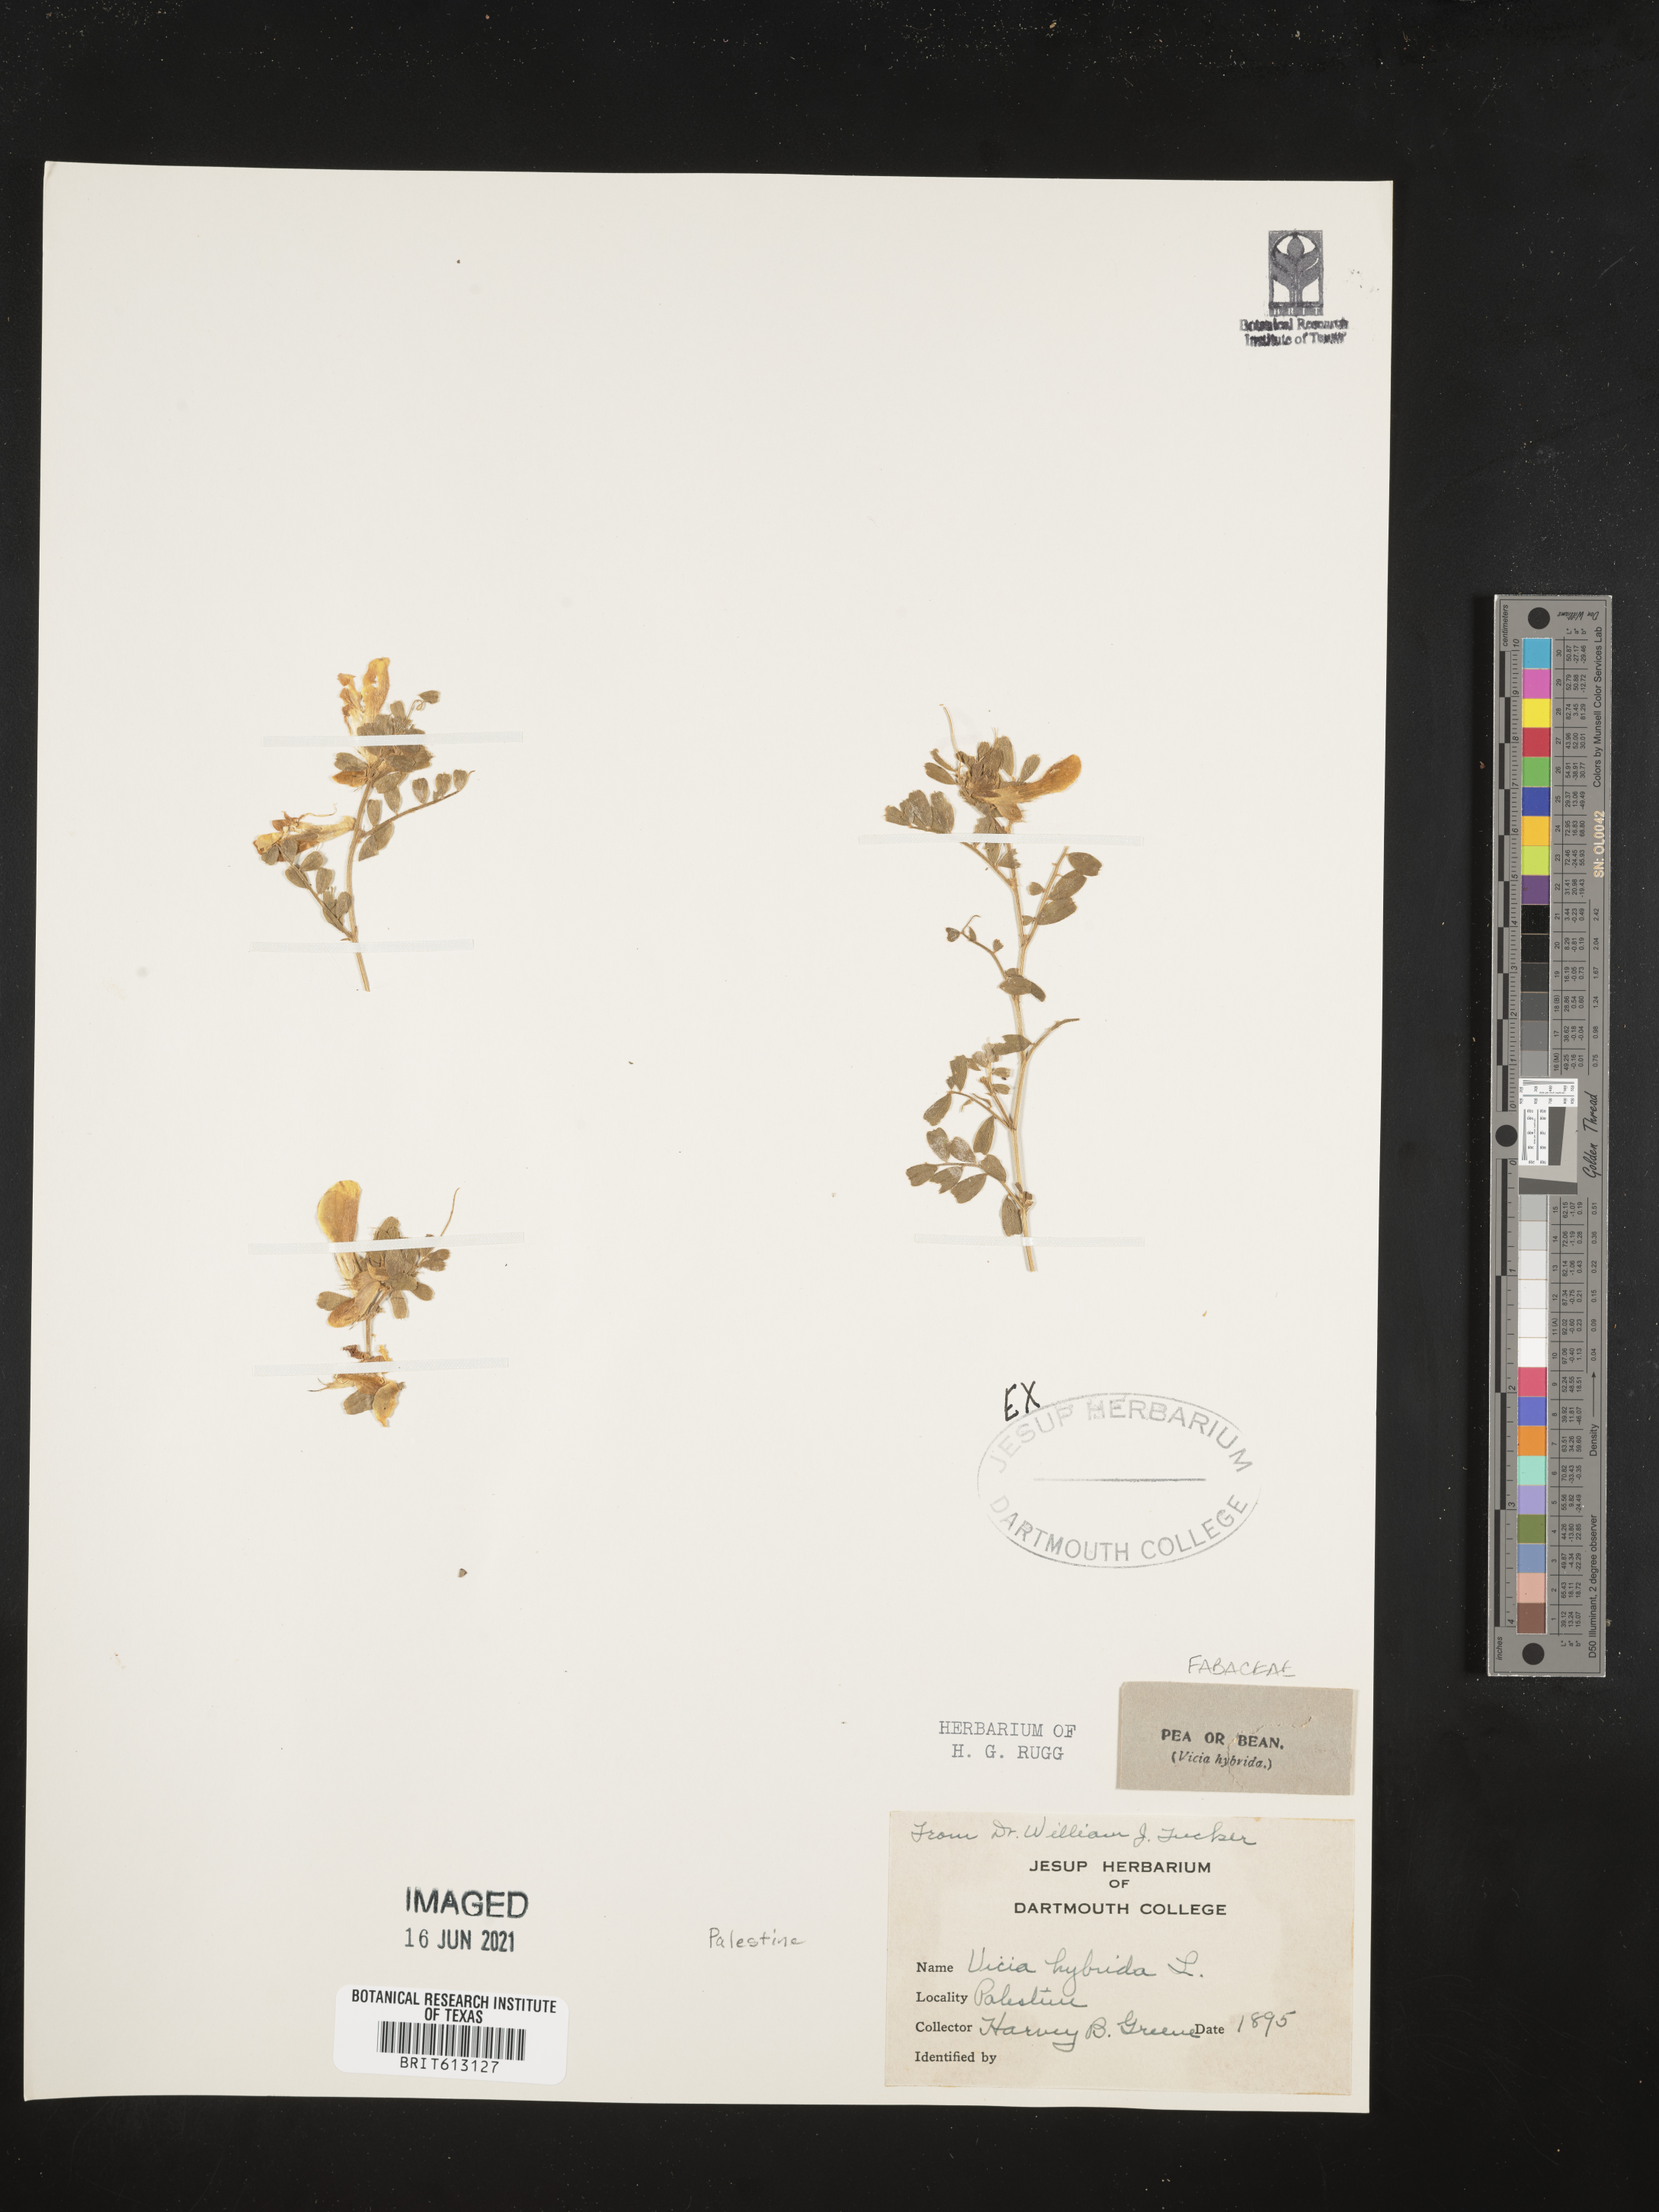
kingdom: Plantae
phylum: Tracheophyta
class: Magnoliopsida
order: Fabales
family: Fabaceae
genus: Vicia
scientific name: Vicia hybrida
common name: Hairy yellow vetch
